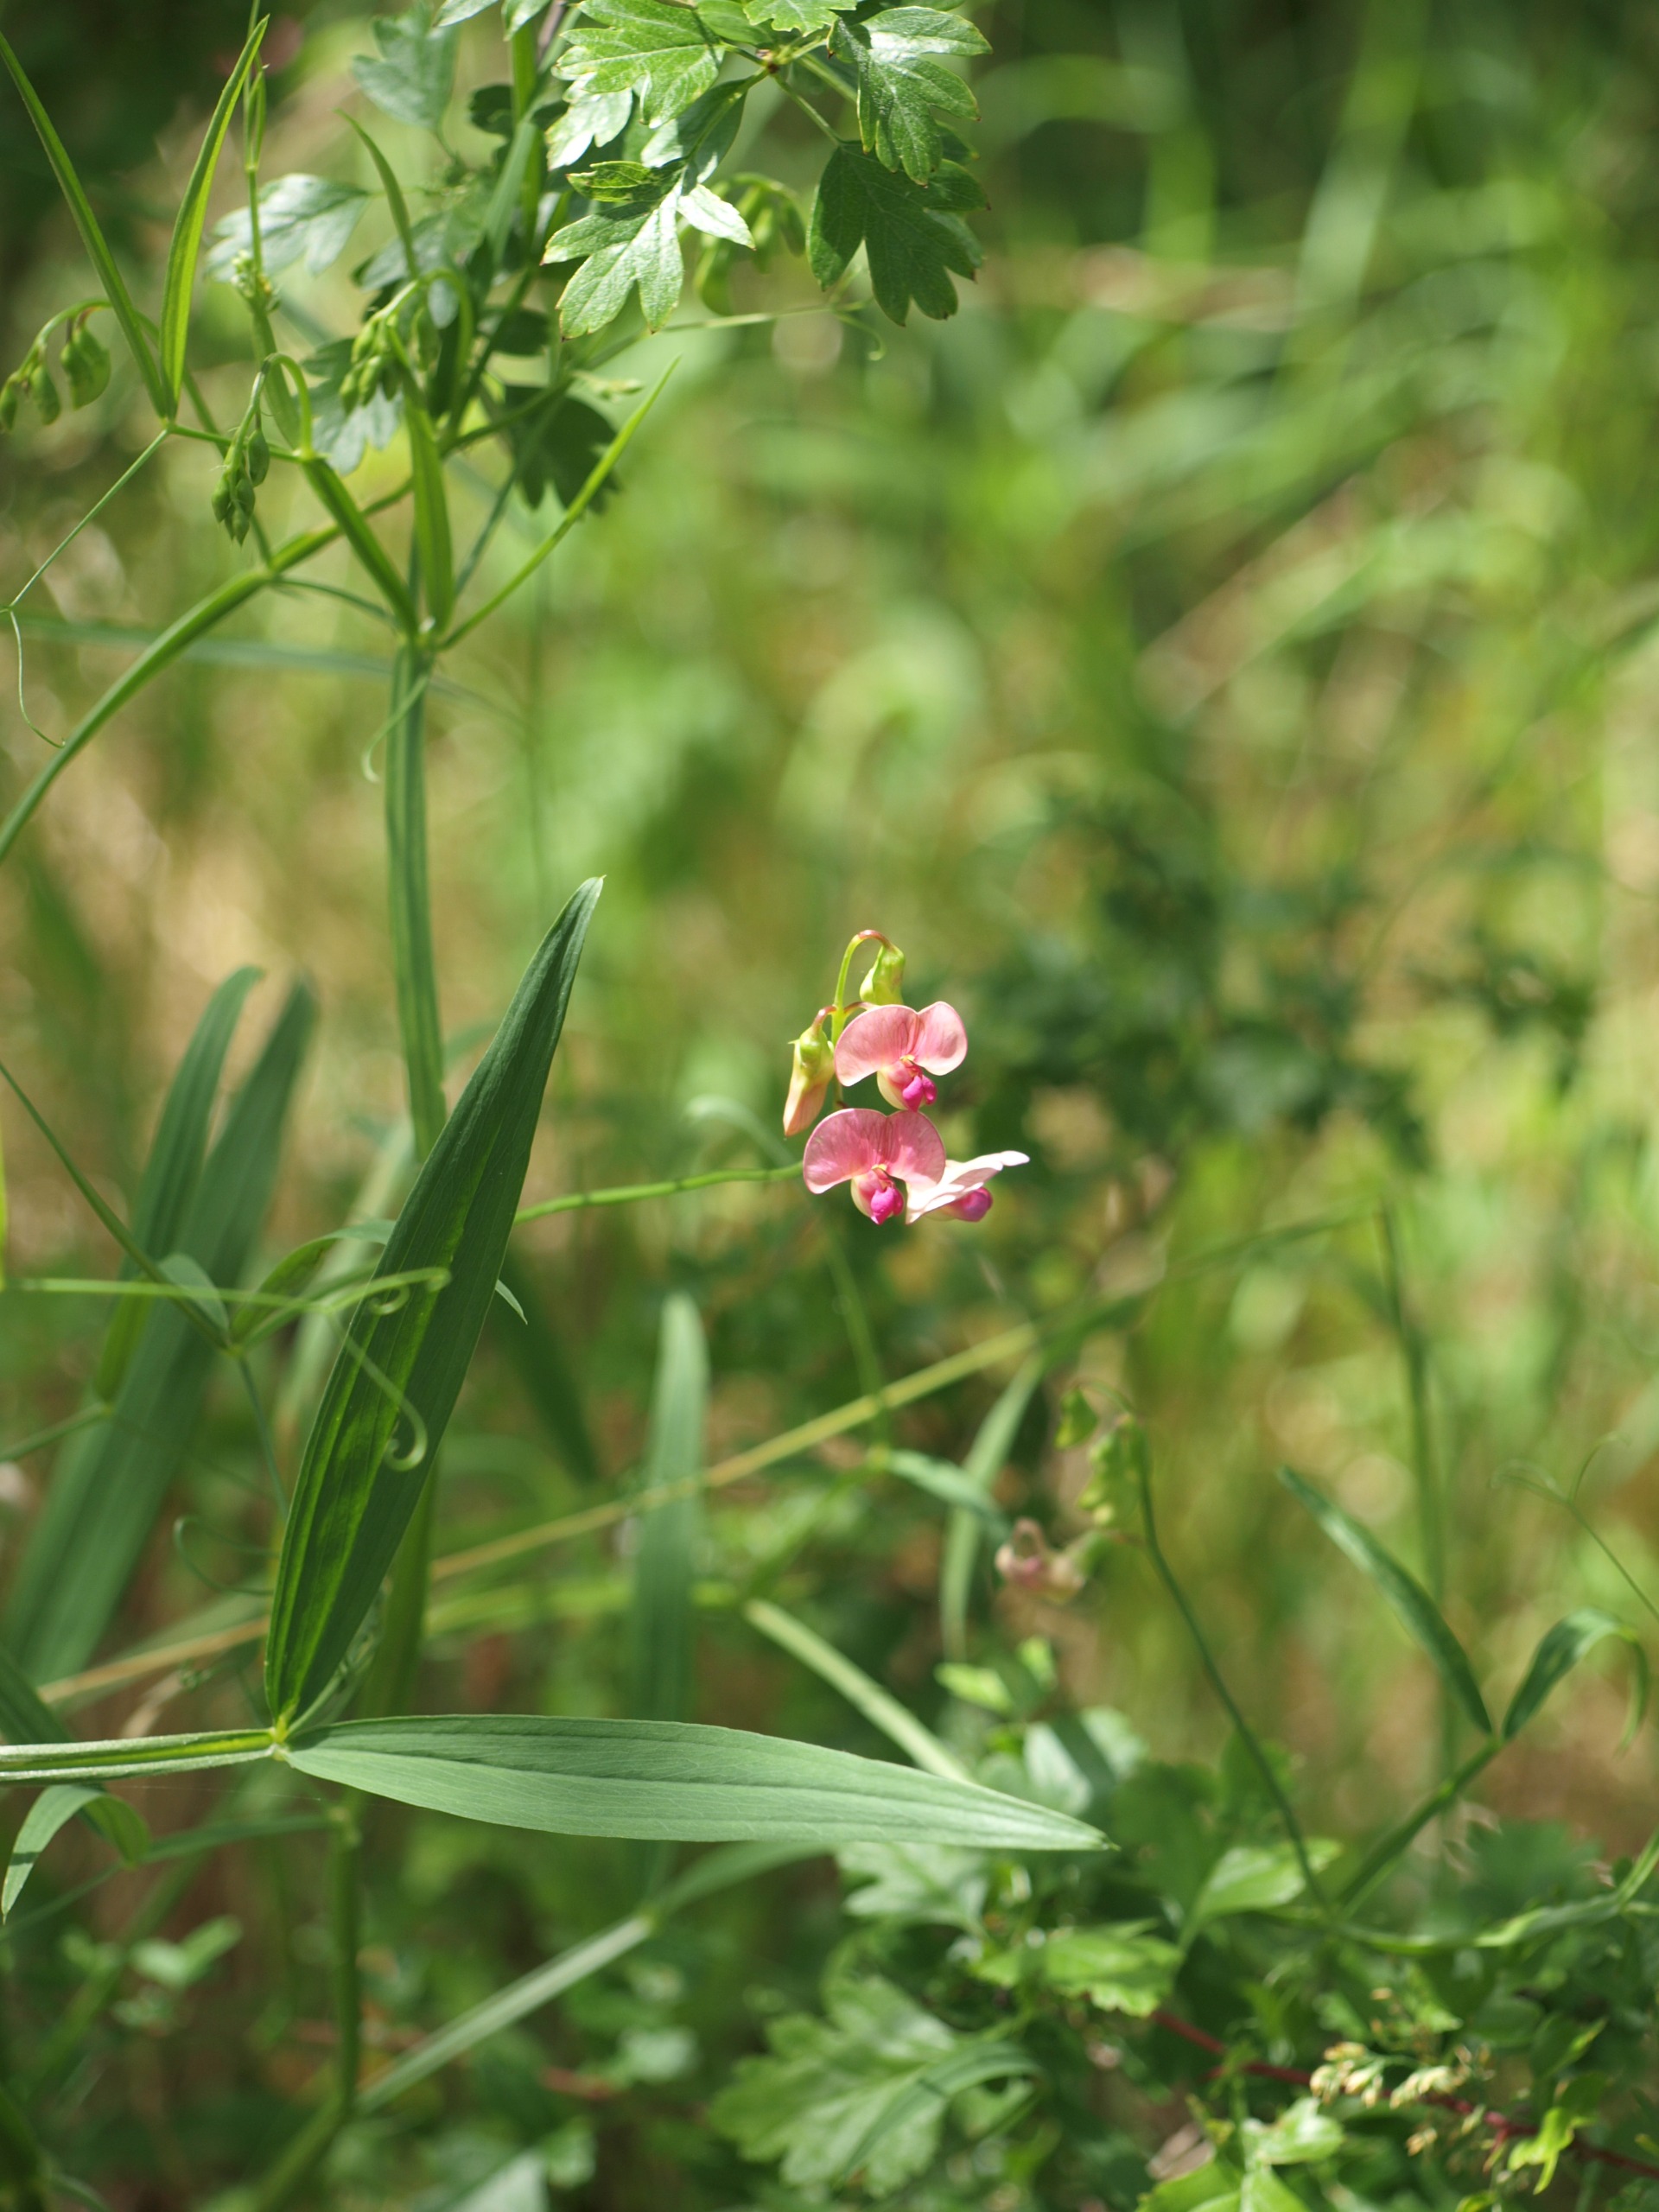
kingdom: Plantae
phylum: Tracheophyta
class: Magnoliopsida
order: Fabales
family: Fabaceae
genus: Lathyrus
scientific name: Lathyrus sylvestris
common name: Skov-fladbælg
